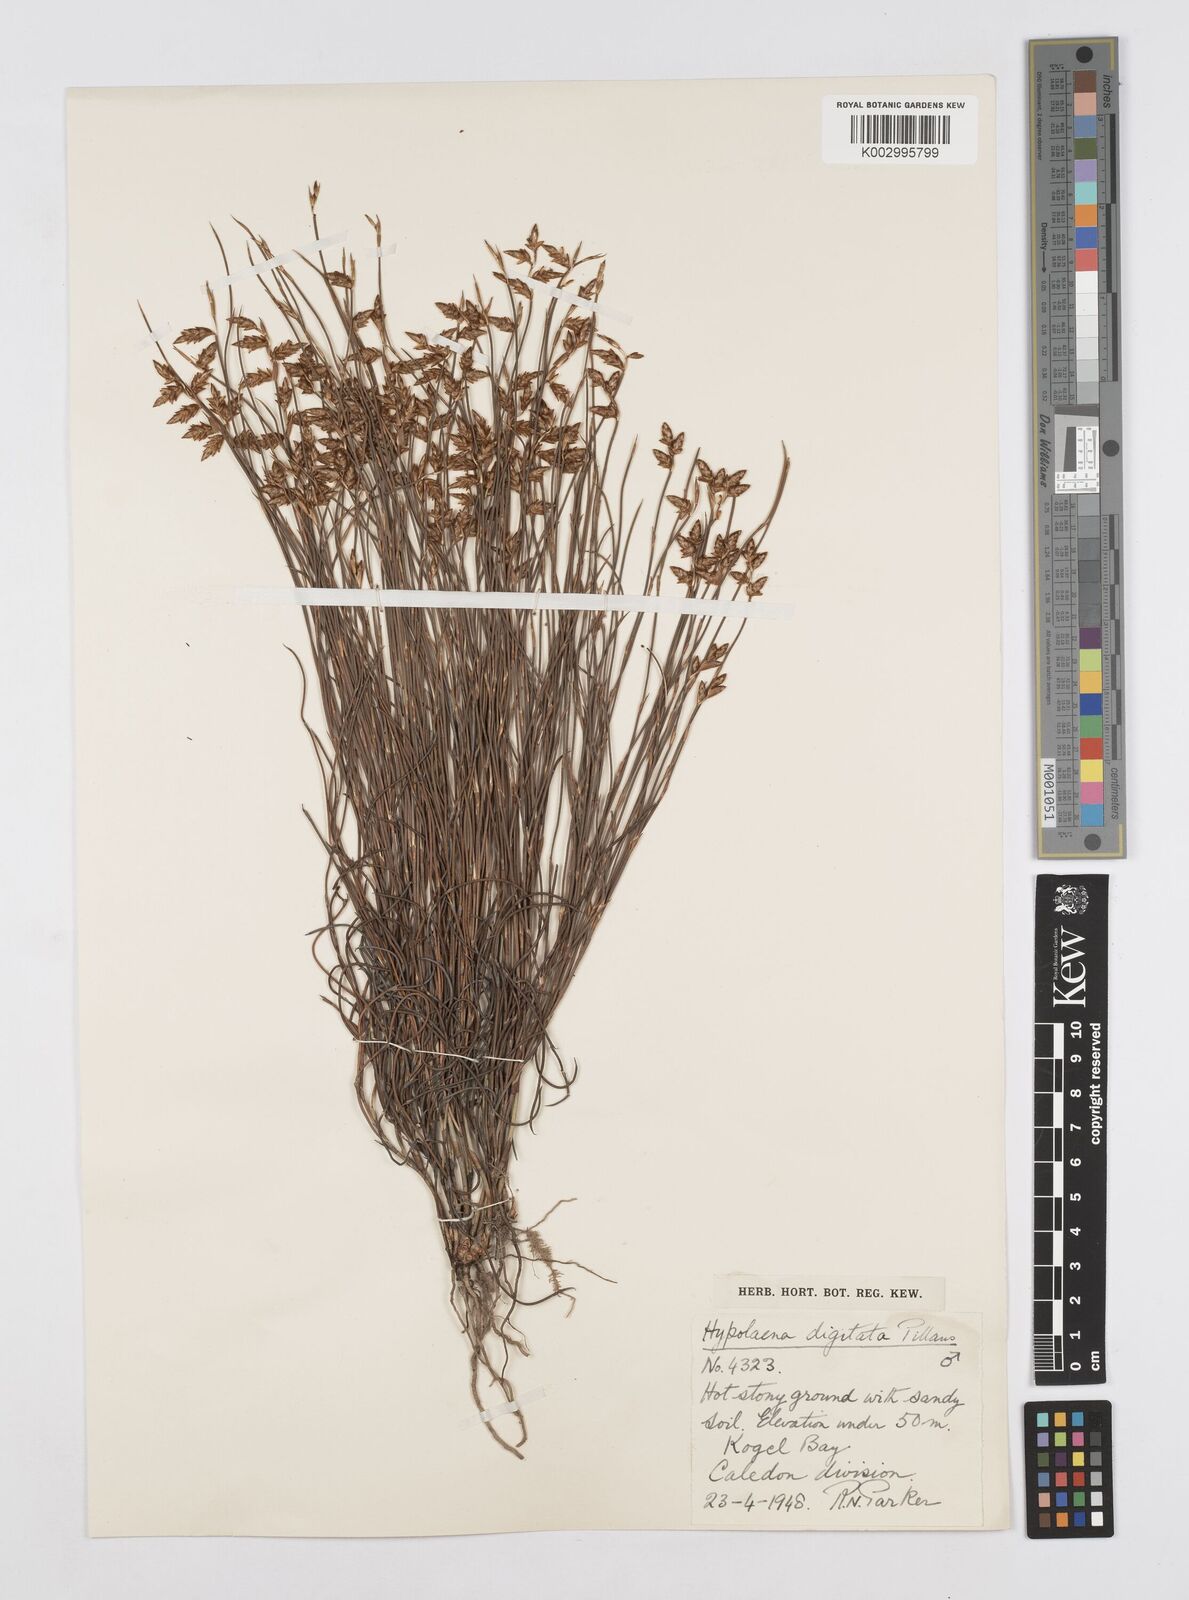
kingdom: Plantae
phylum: Tracheophyta
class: Liliopsida
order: Poales
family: Restionaceae
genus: Mastersiella
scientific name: Mastersiella digitata
